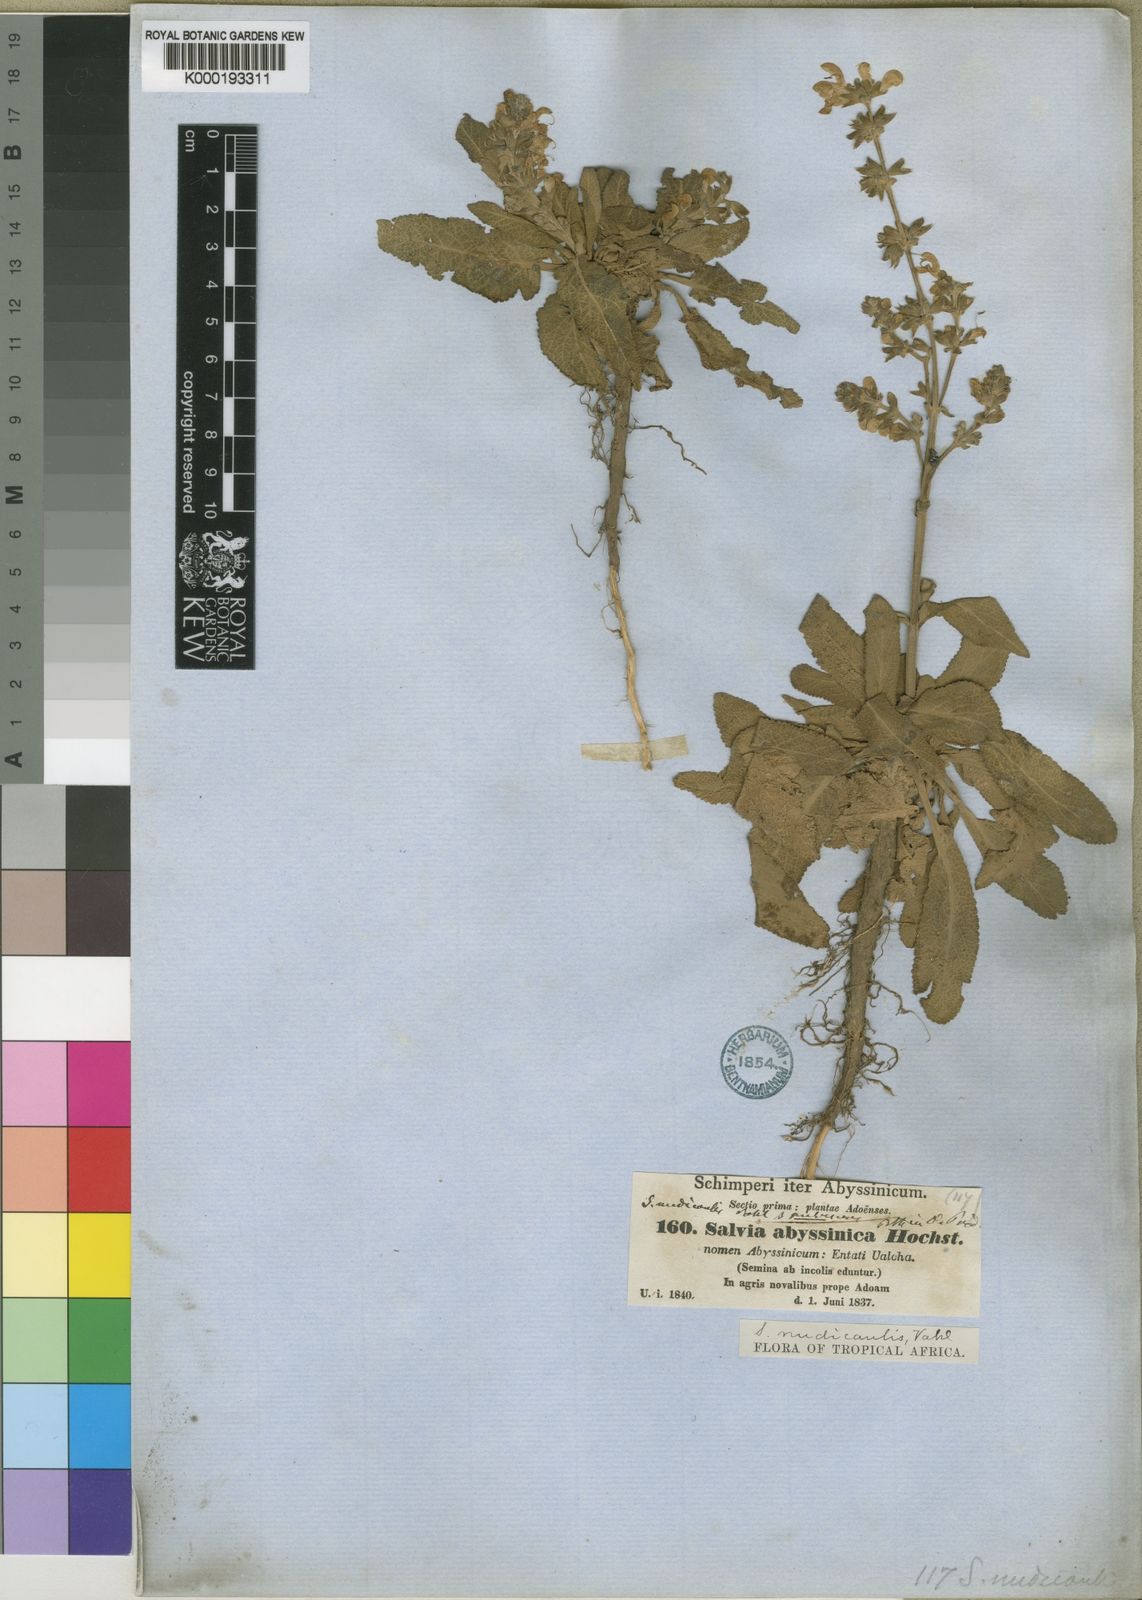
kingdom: Plantae
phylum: Tracheophyta
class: Magnoliopsida
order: Lamiales
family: Lamiaceae
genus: Salvia
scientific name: Salvia merjamie
